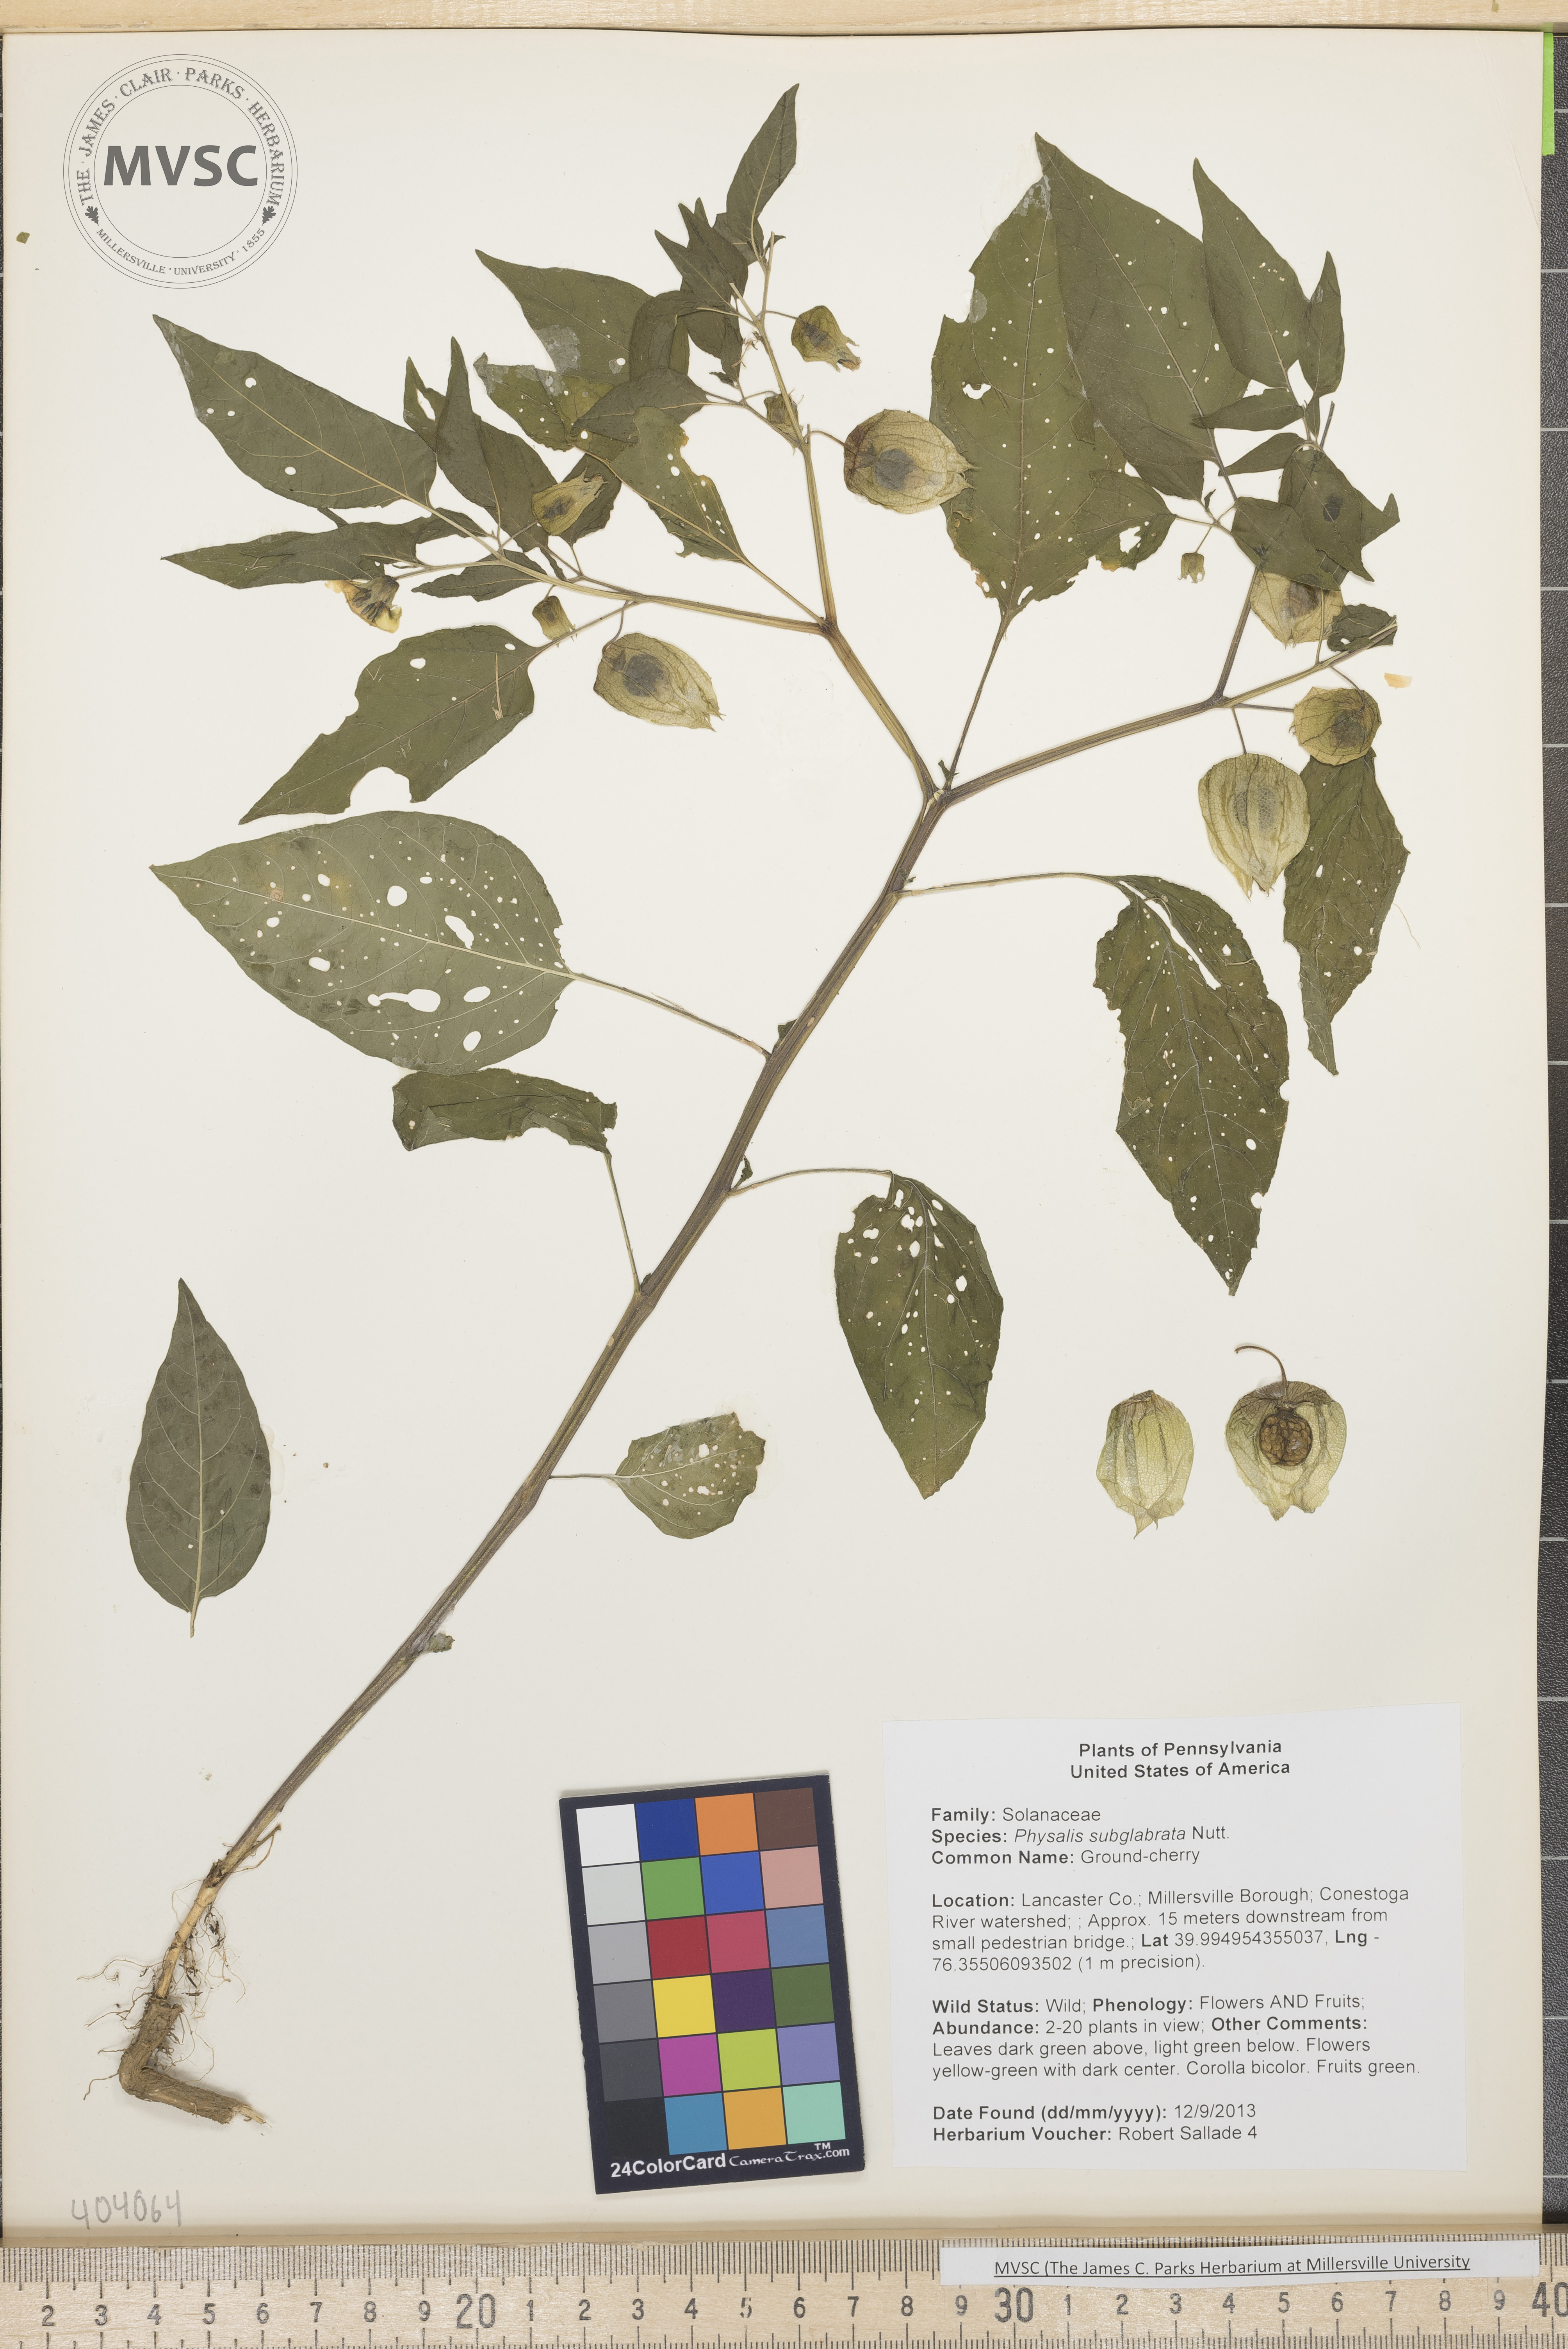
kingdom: Plantae
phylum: Tracheophyta
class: Magnoliopsida
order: Solanales
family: Solanaceae
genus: Physalis
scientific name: Physalis longifolia
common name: Ground-cherry
